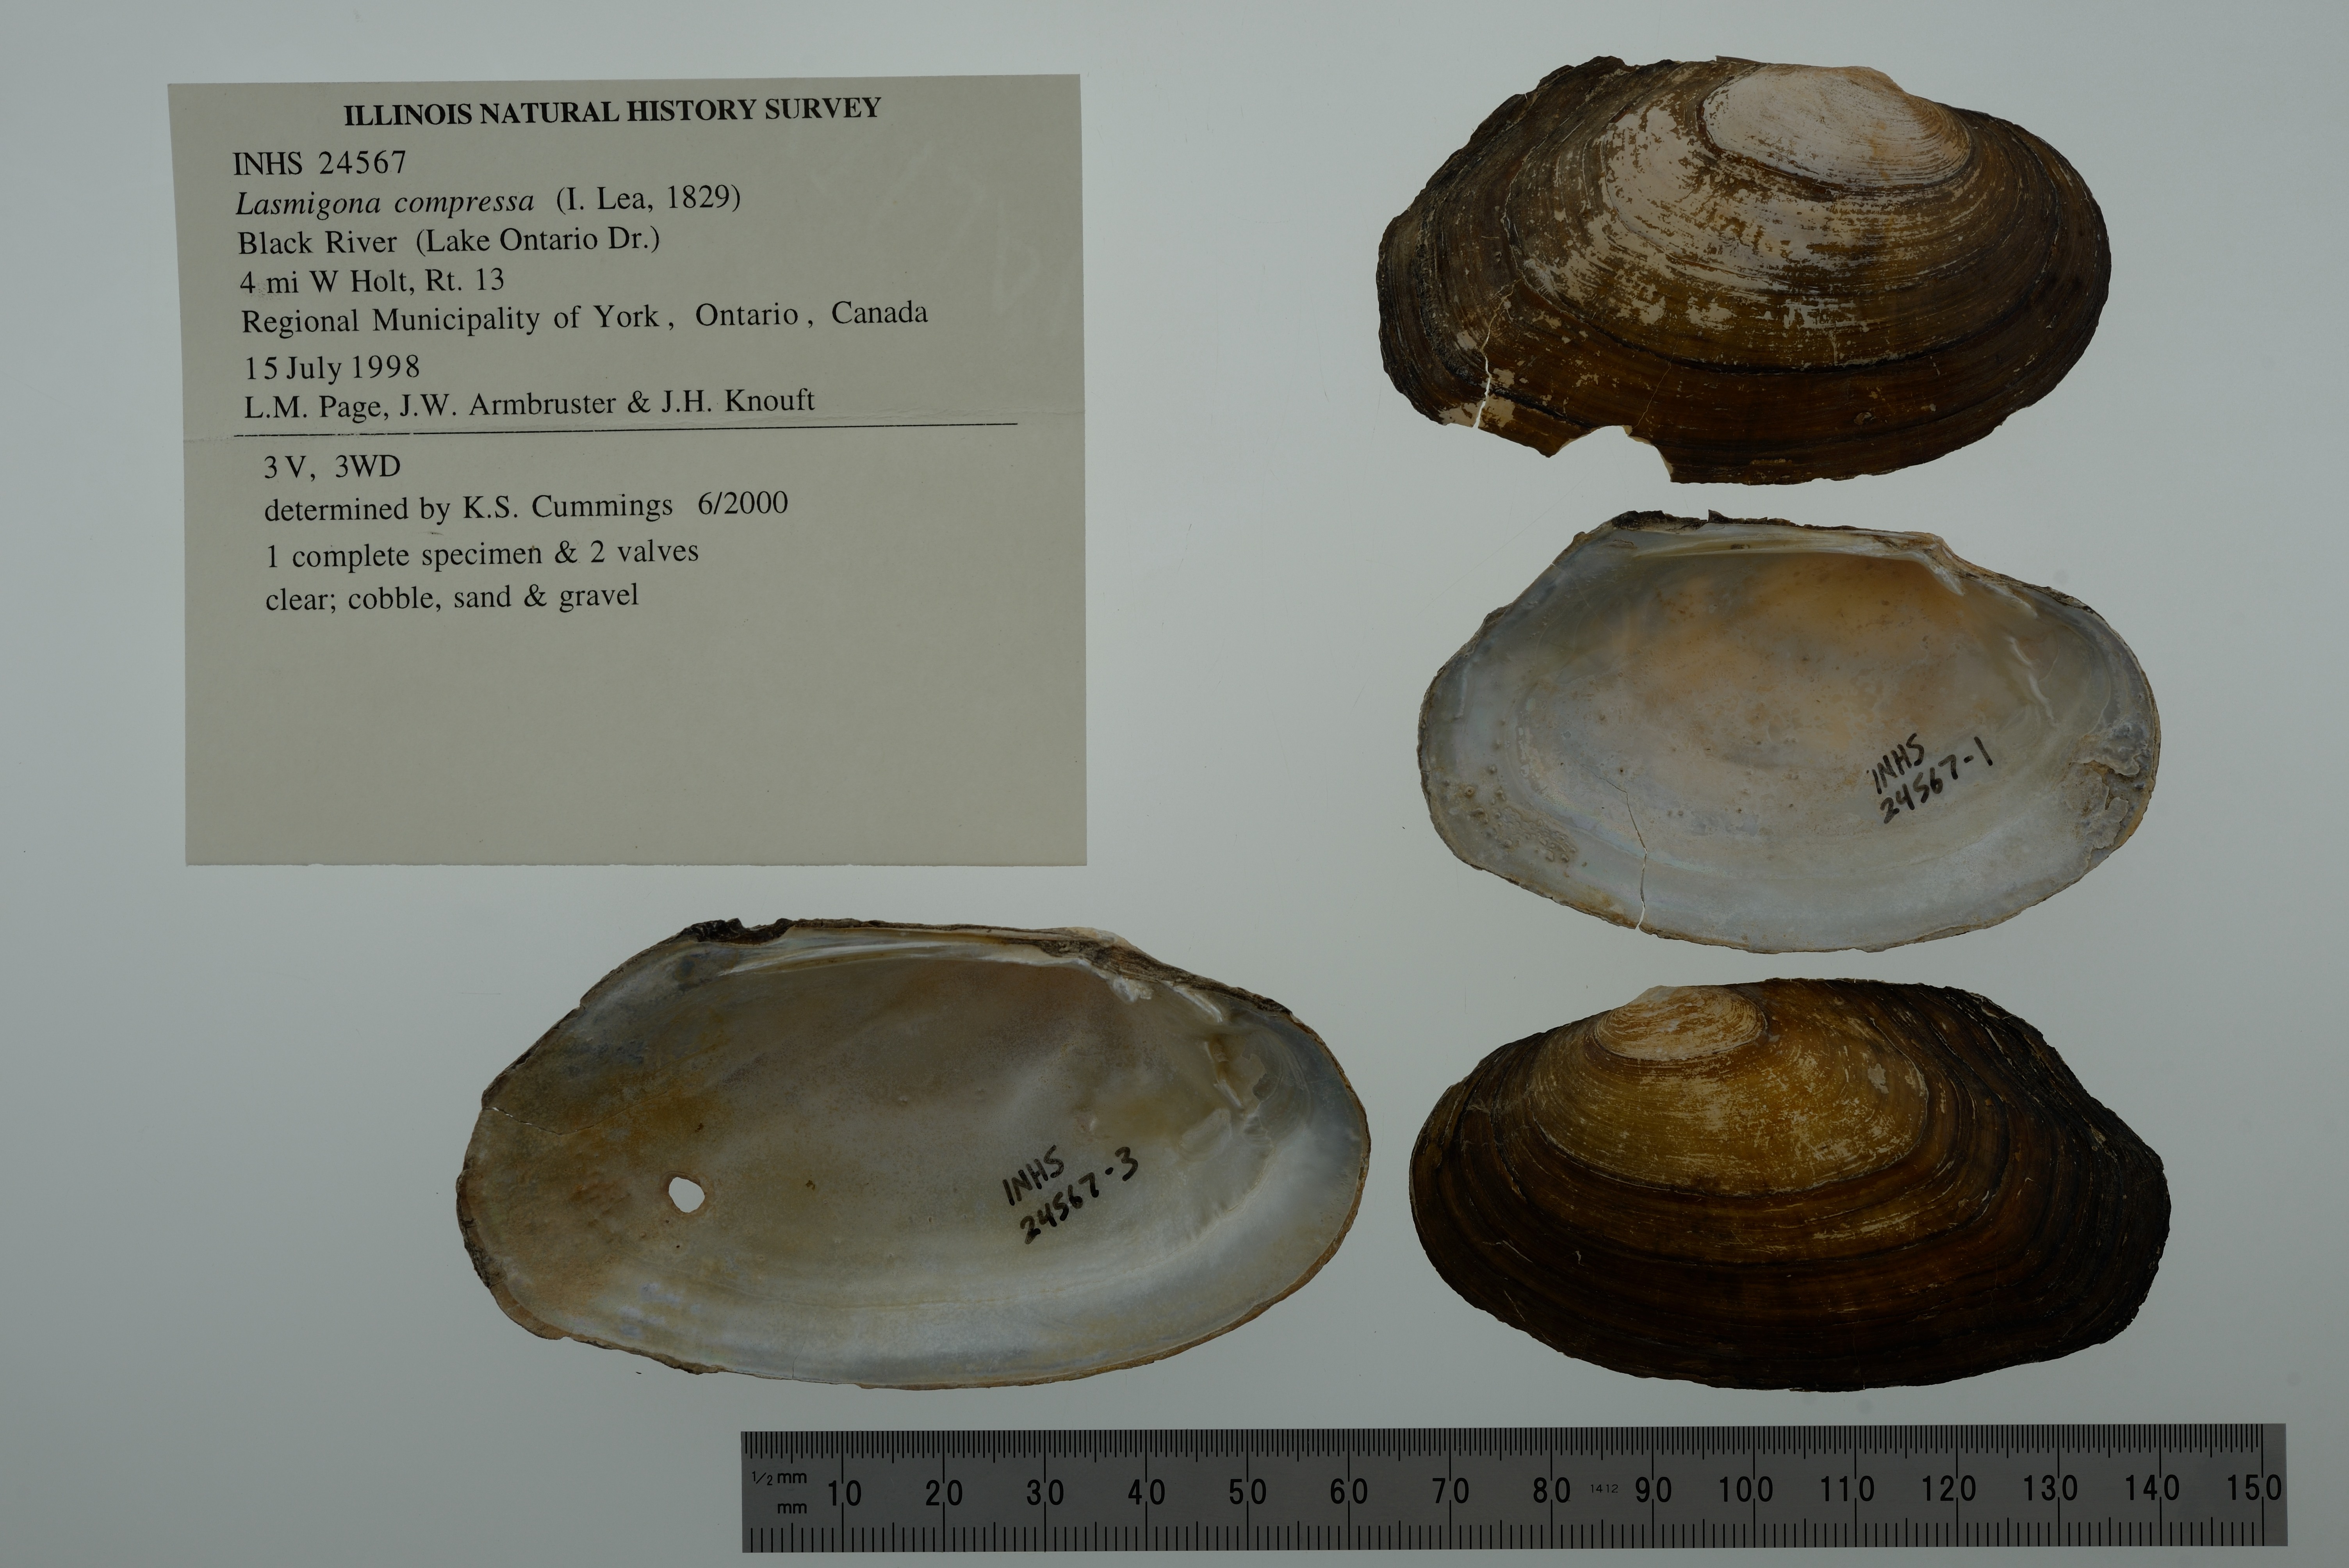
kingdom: Animalia
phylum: Mollusca
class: Bivalvia
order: Unionida
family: Unionidae
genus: Lasmigona
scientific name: Lasmigona compressa
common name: Creek heelsplitter
